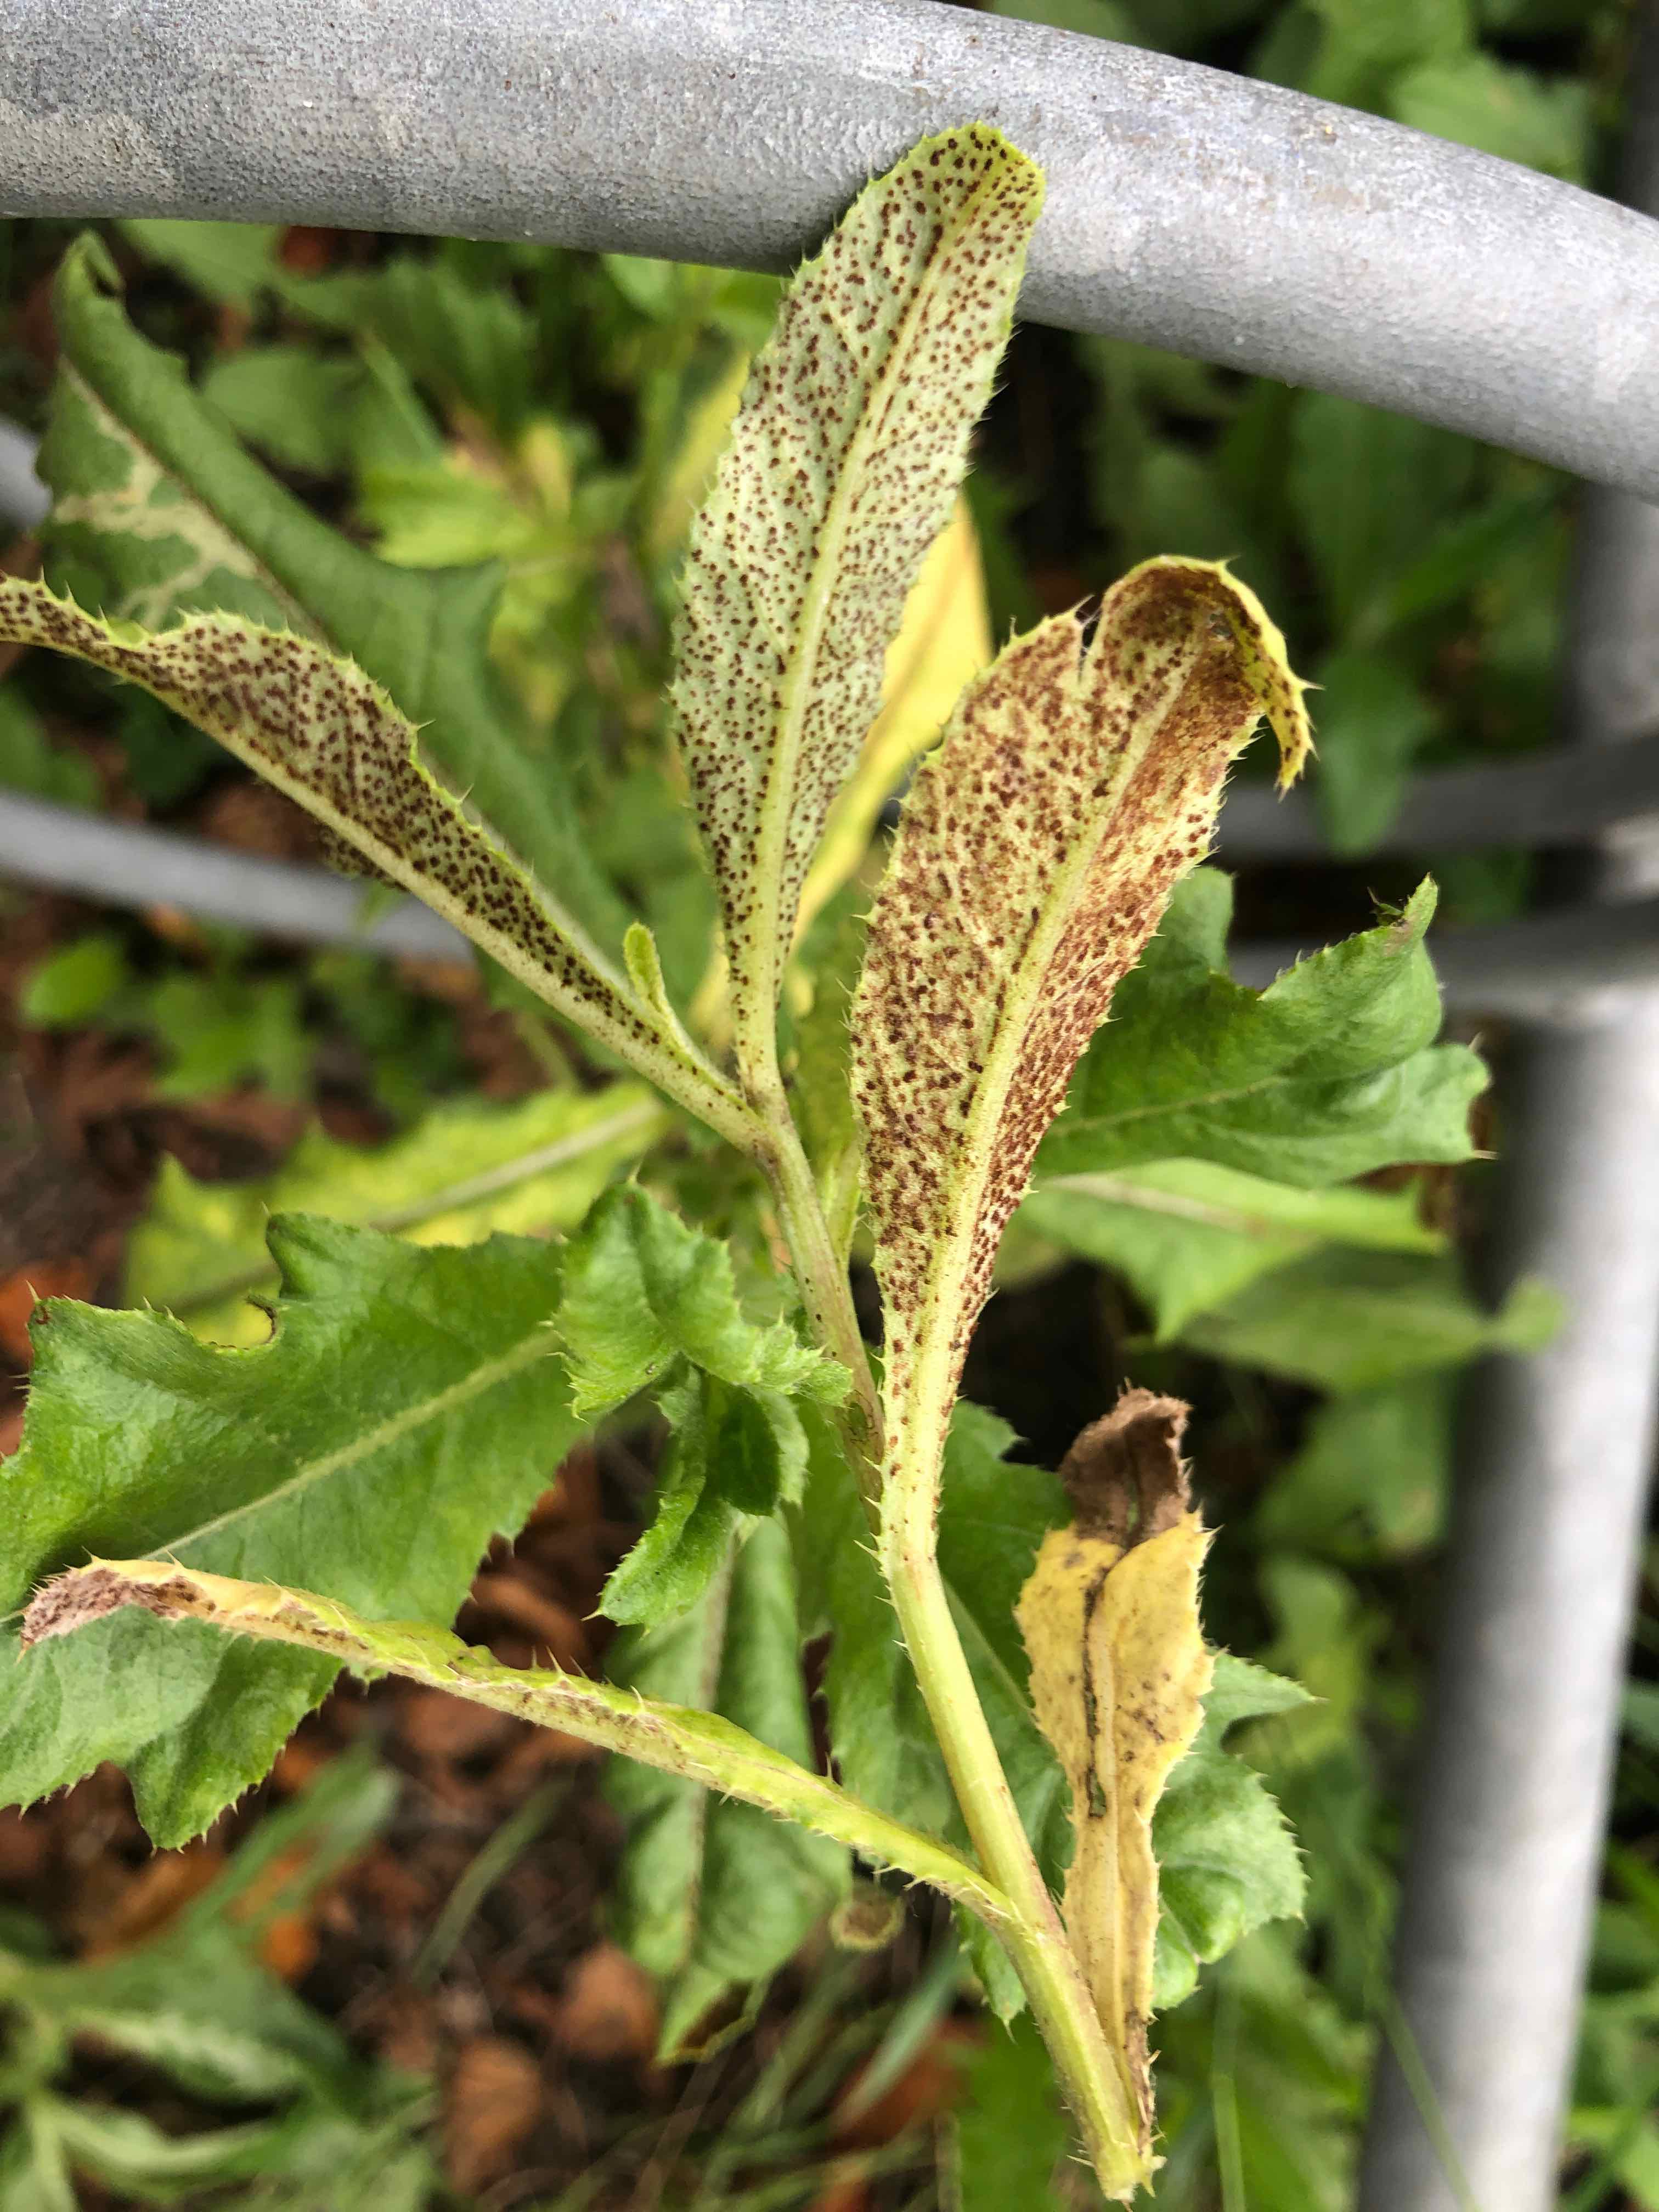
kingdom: Fungi
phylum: Basidiomycota
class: Pucciniomycetes
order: Pucciniales
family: Pucciniaceae
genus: Puccinia
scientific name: Puccinia suaveolens
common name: tidsel-tvecellerust
